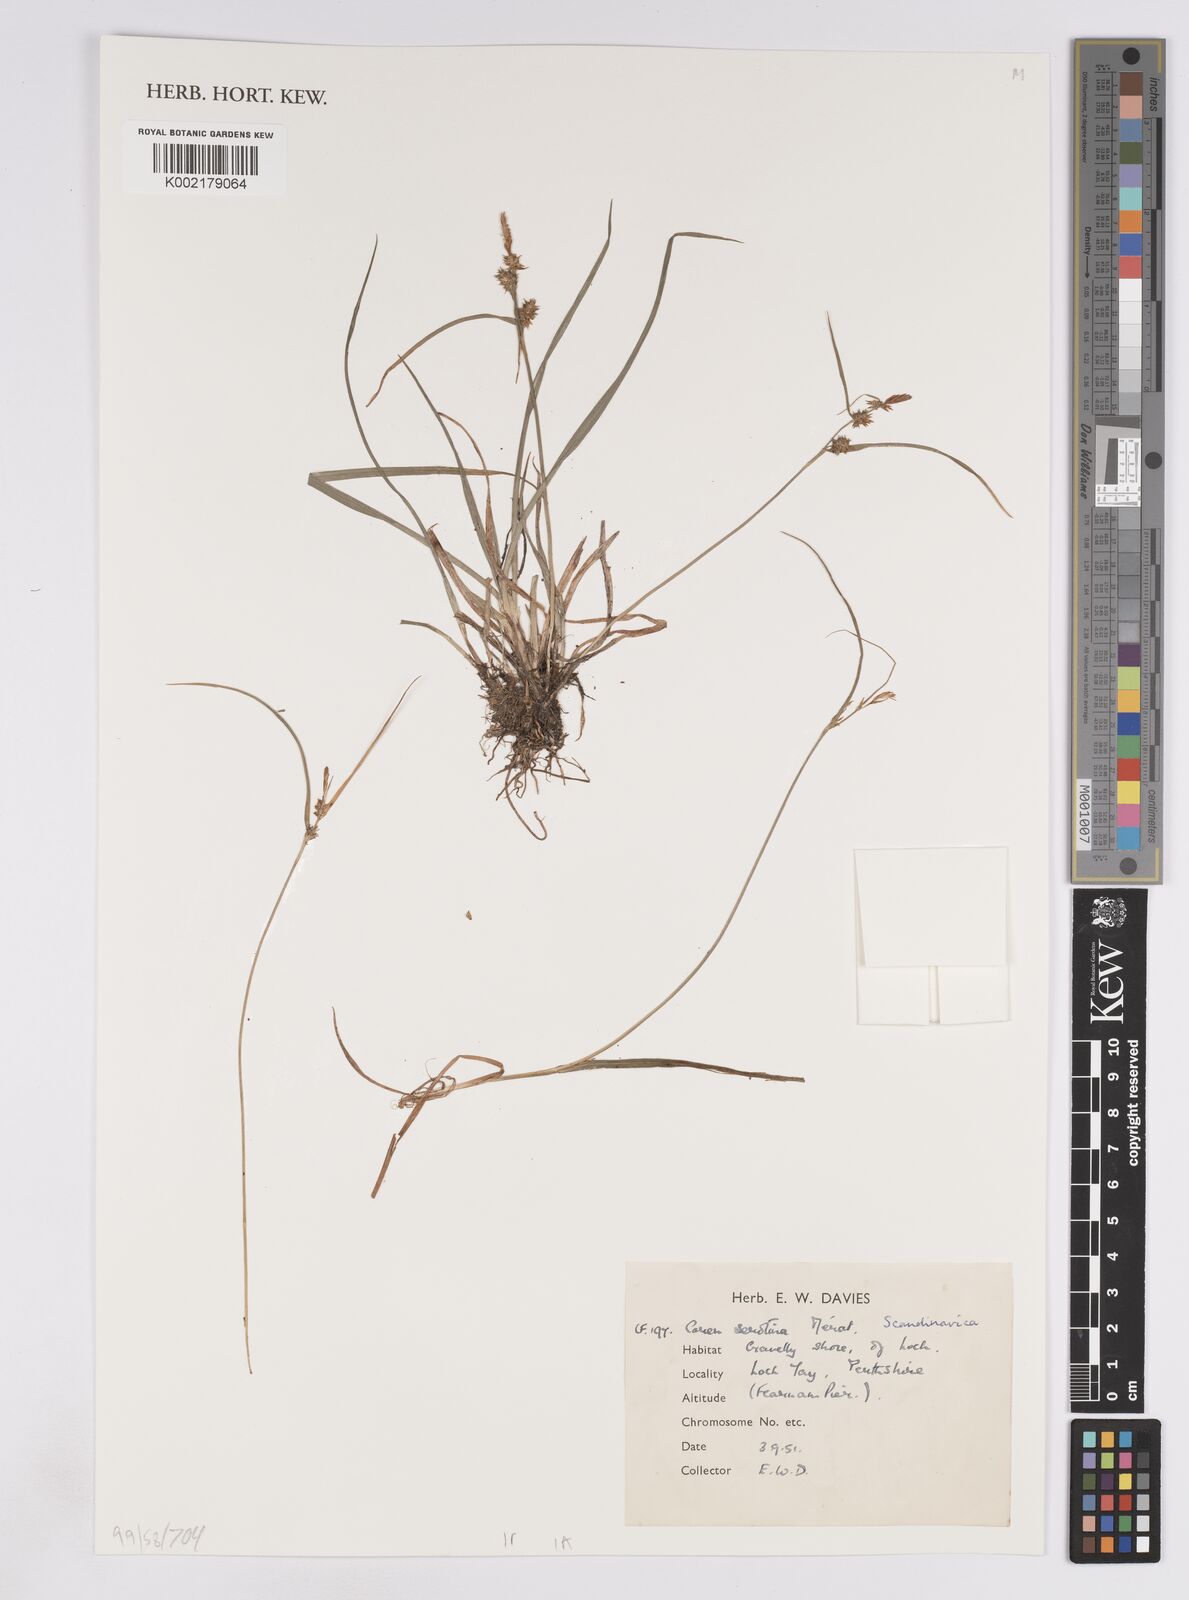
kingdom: Plantae
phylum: Tracheophyta
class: Liliopsida
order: Poales
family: Cyperaceae
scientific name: Cyperaceae
